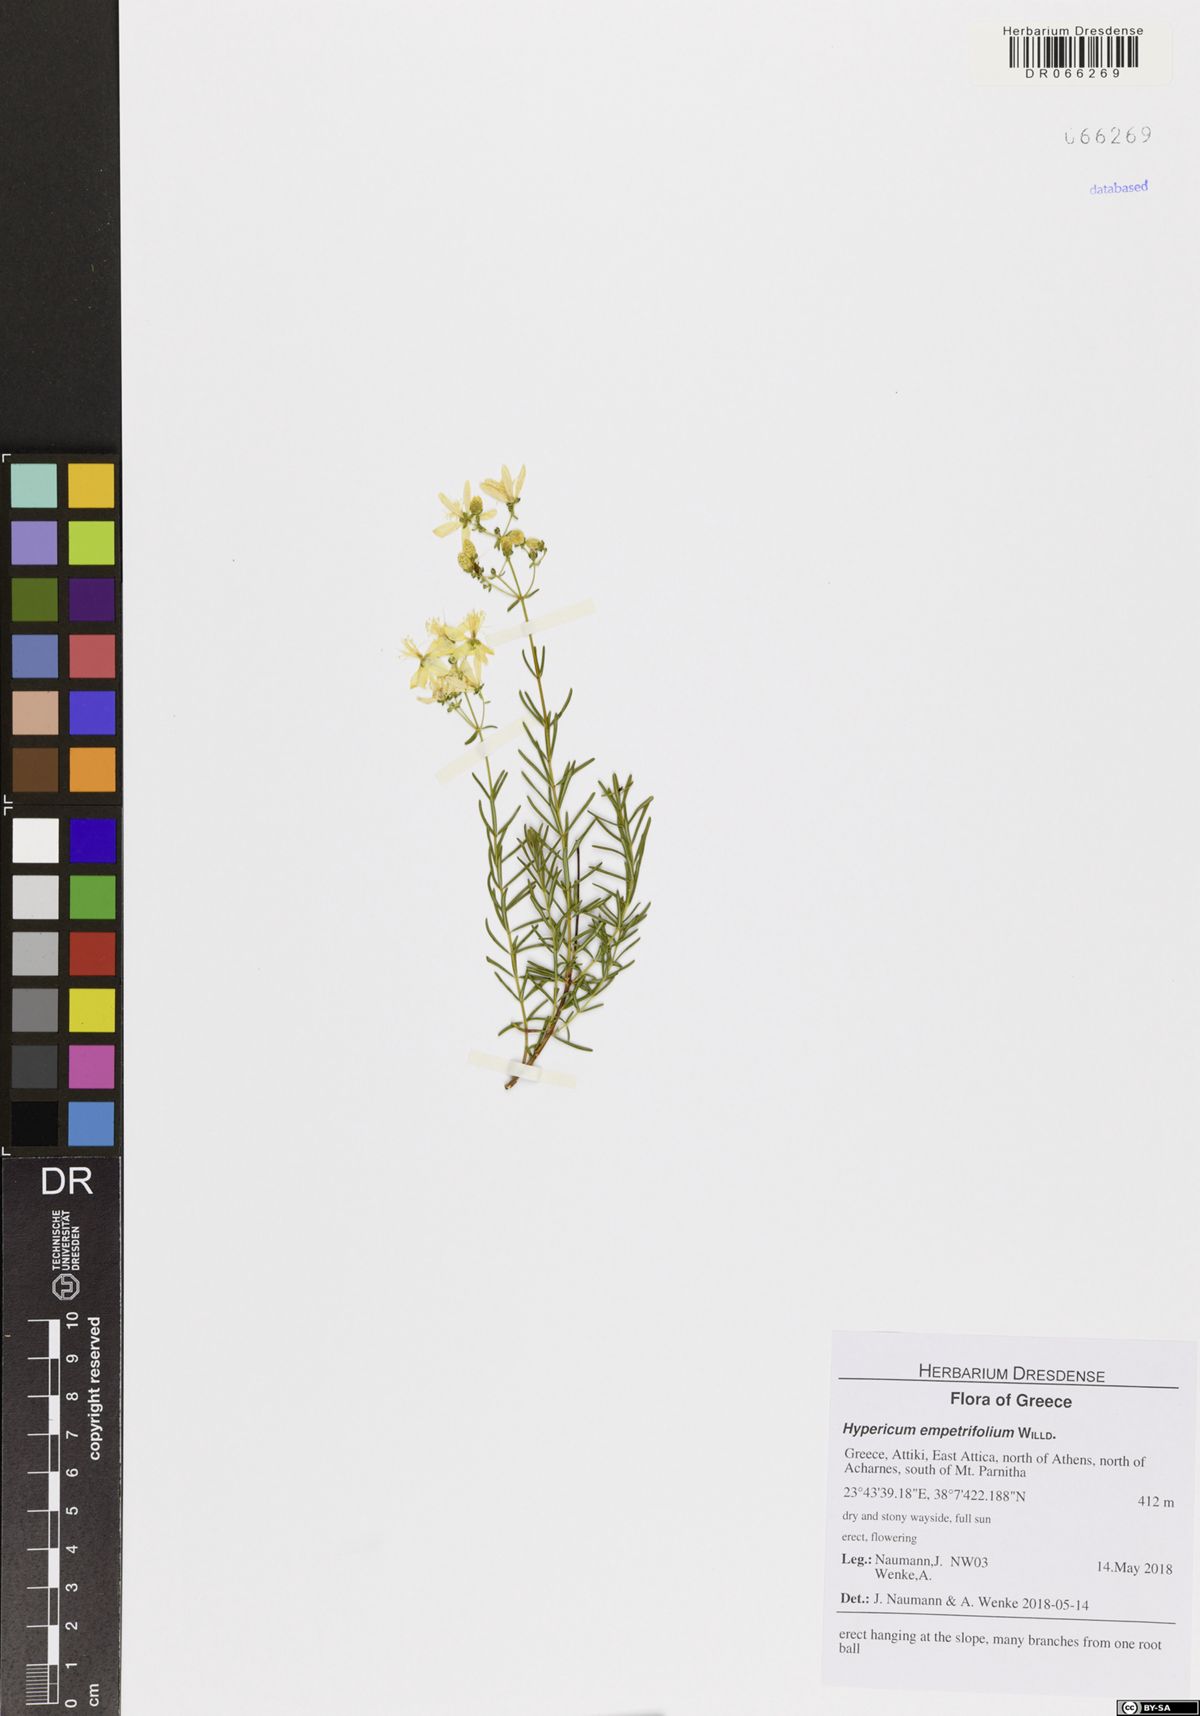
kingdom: Plantae
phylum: Tracheophyta
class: Magnoliopsida
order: Malpighiales
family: Hypericaceae
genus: Hypericum
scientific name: Hypericum empetrifolium
